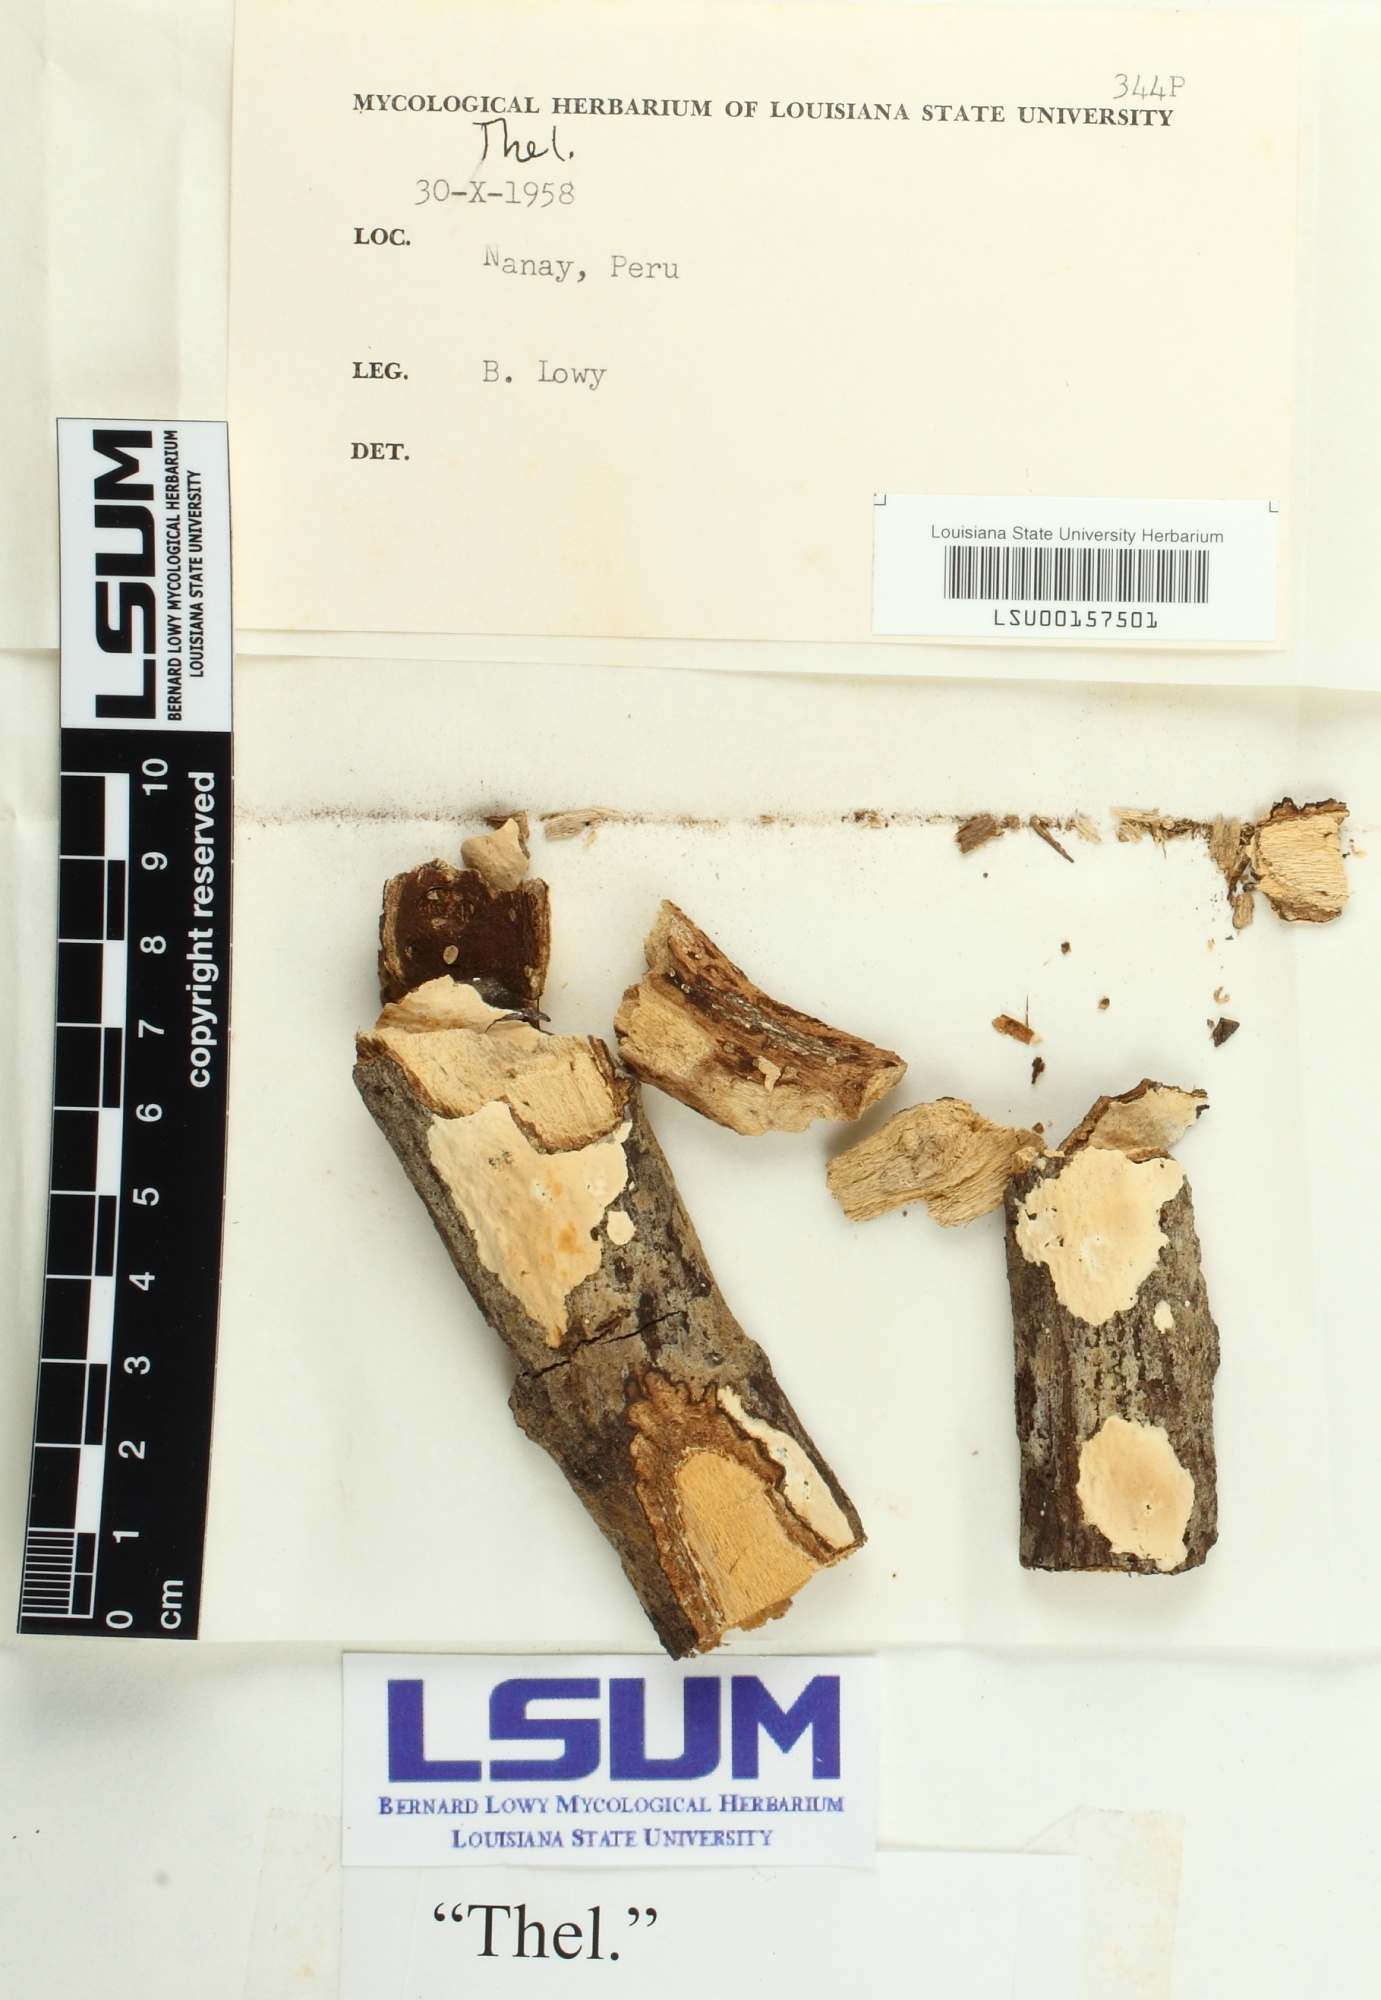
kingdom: Fungi
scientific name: Fungi
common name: Fungi
